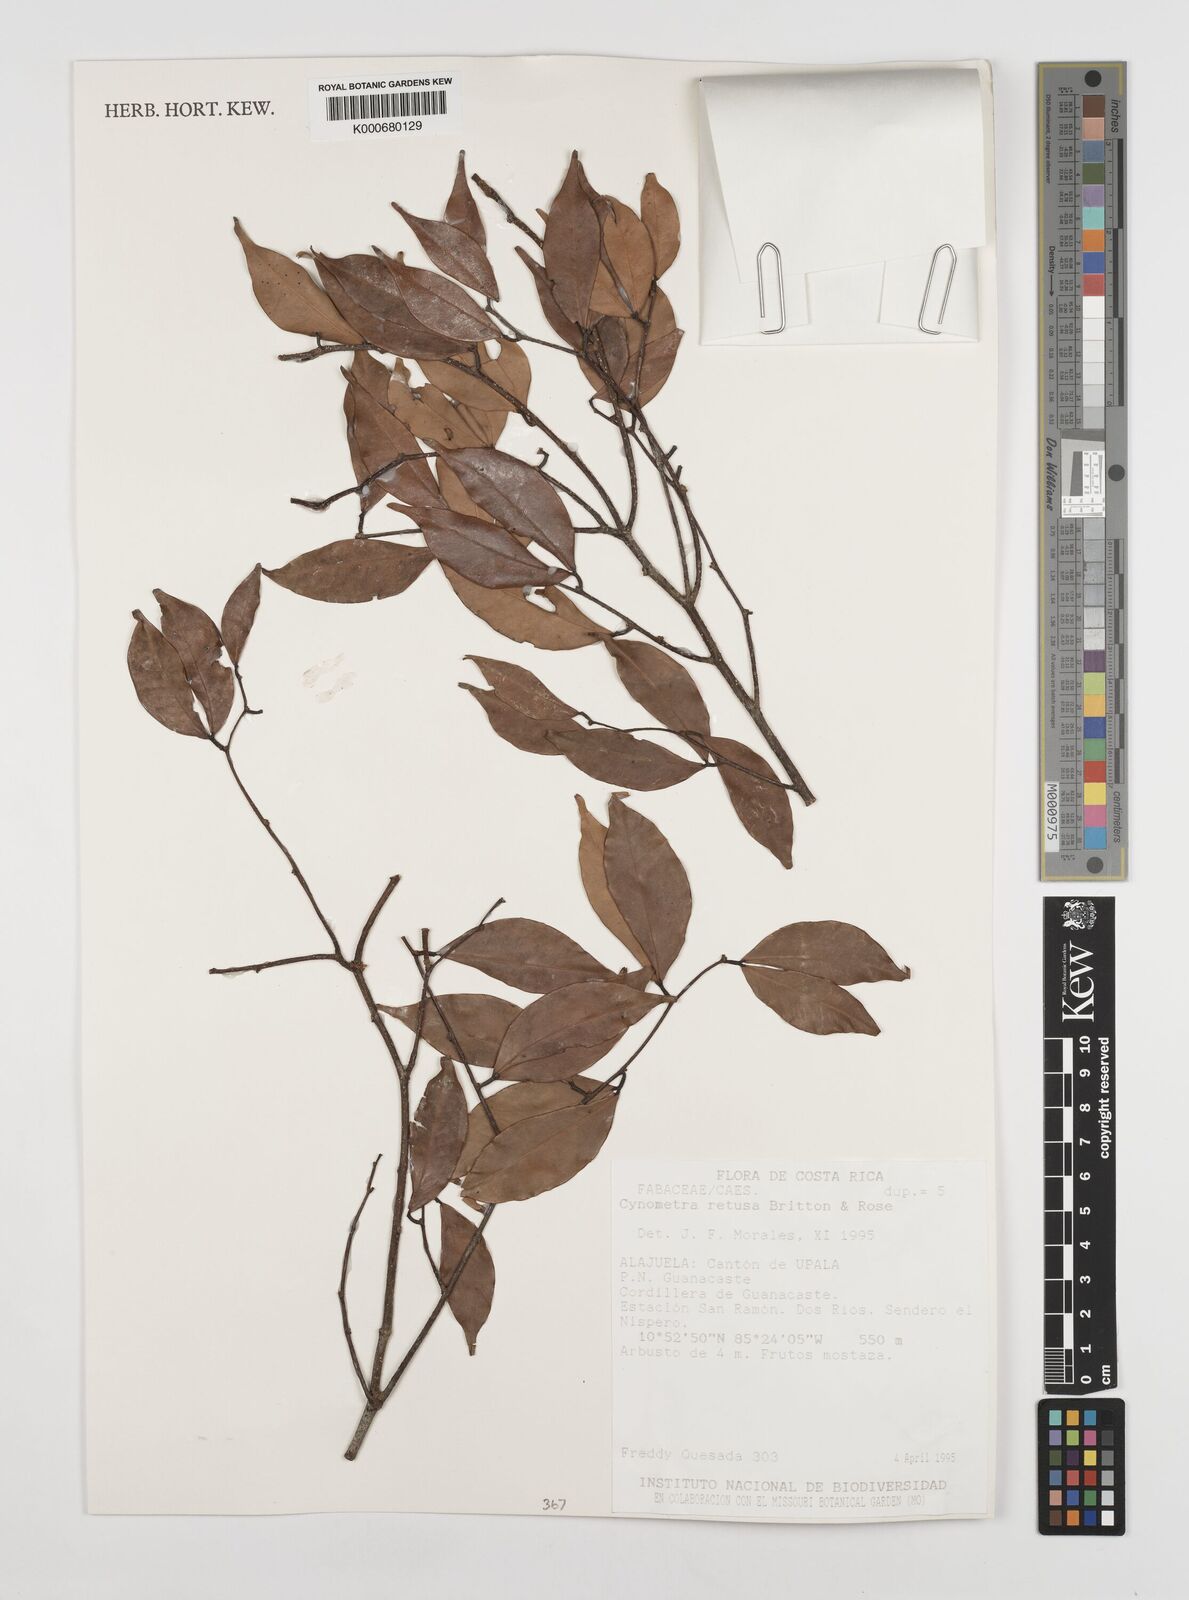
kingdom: Plantae
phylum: Tracheophyta
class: Magnoliopsida
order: Fabales
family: Fabaceae
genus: Cynometra
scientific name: Cynometra retusa
